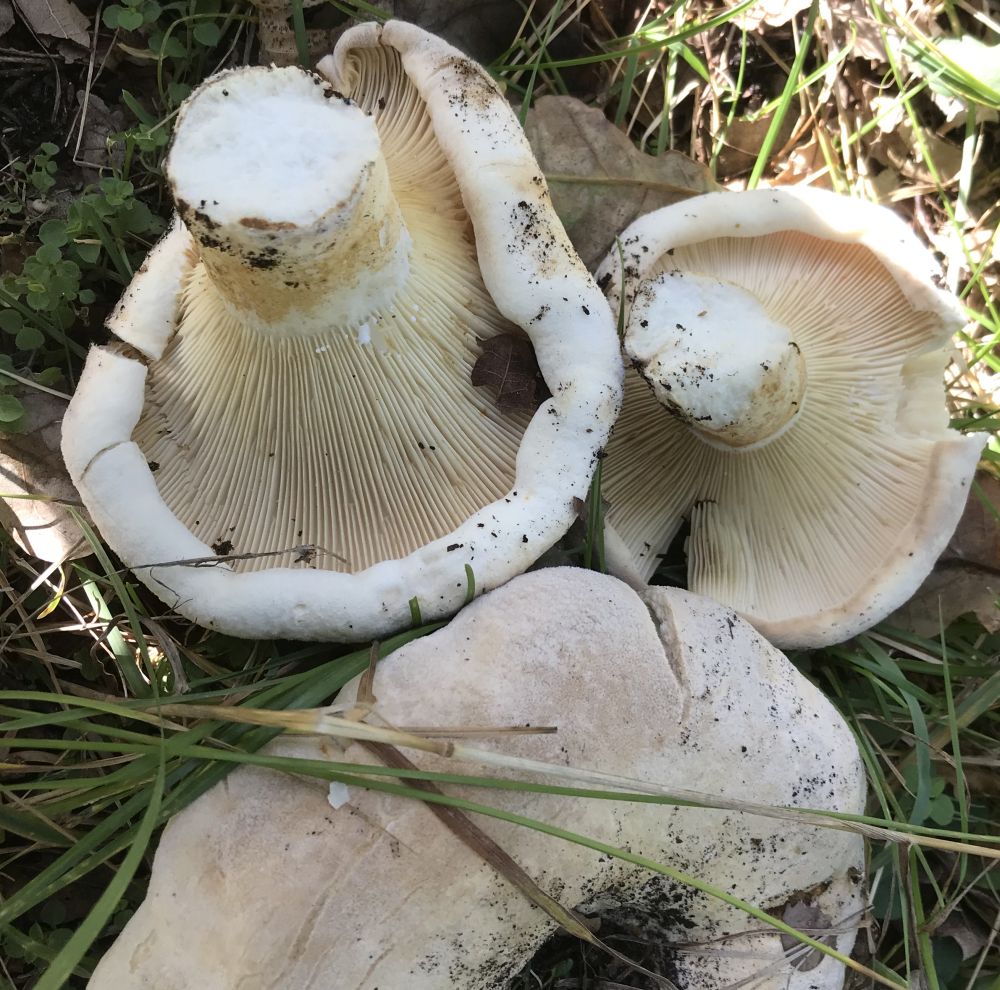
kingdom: Fungi
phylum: Basidiomycota
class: Agaricomycetes
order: Russulales
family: Russulaceae
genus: Lactifluus
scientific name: Lactifluus
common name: mælkehat
